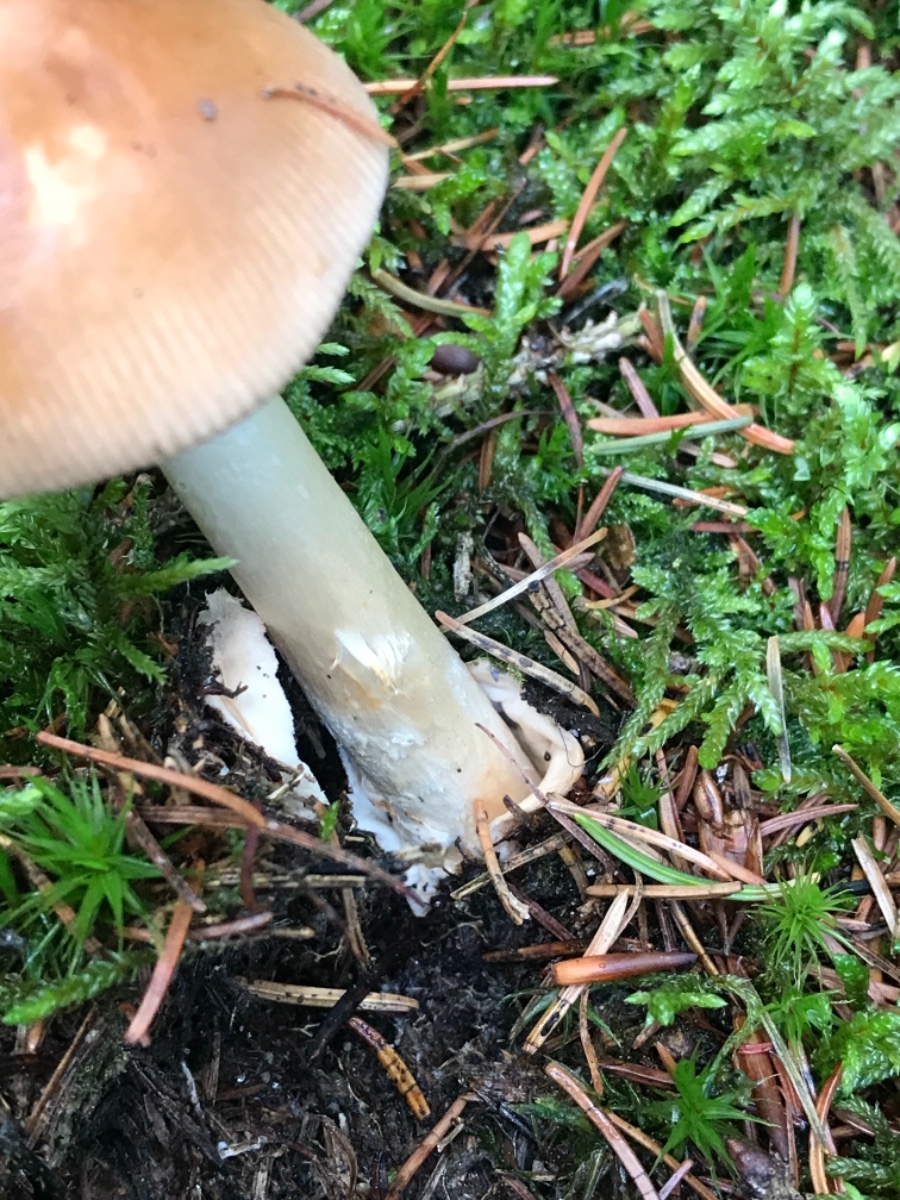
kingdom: Fungi
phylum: Basidiomycota
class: Agaricomycetes
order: Agaricales
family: Amanitaceae
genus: Amanita
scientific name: Amanita fulva
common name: brun kam-fluesvamp
